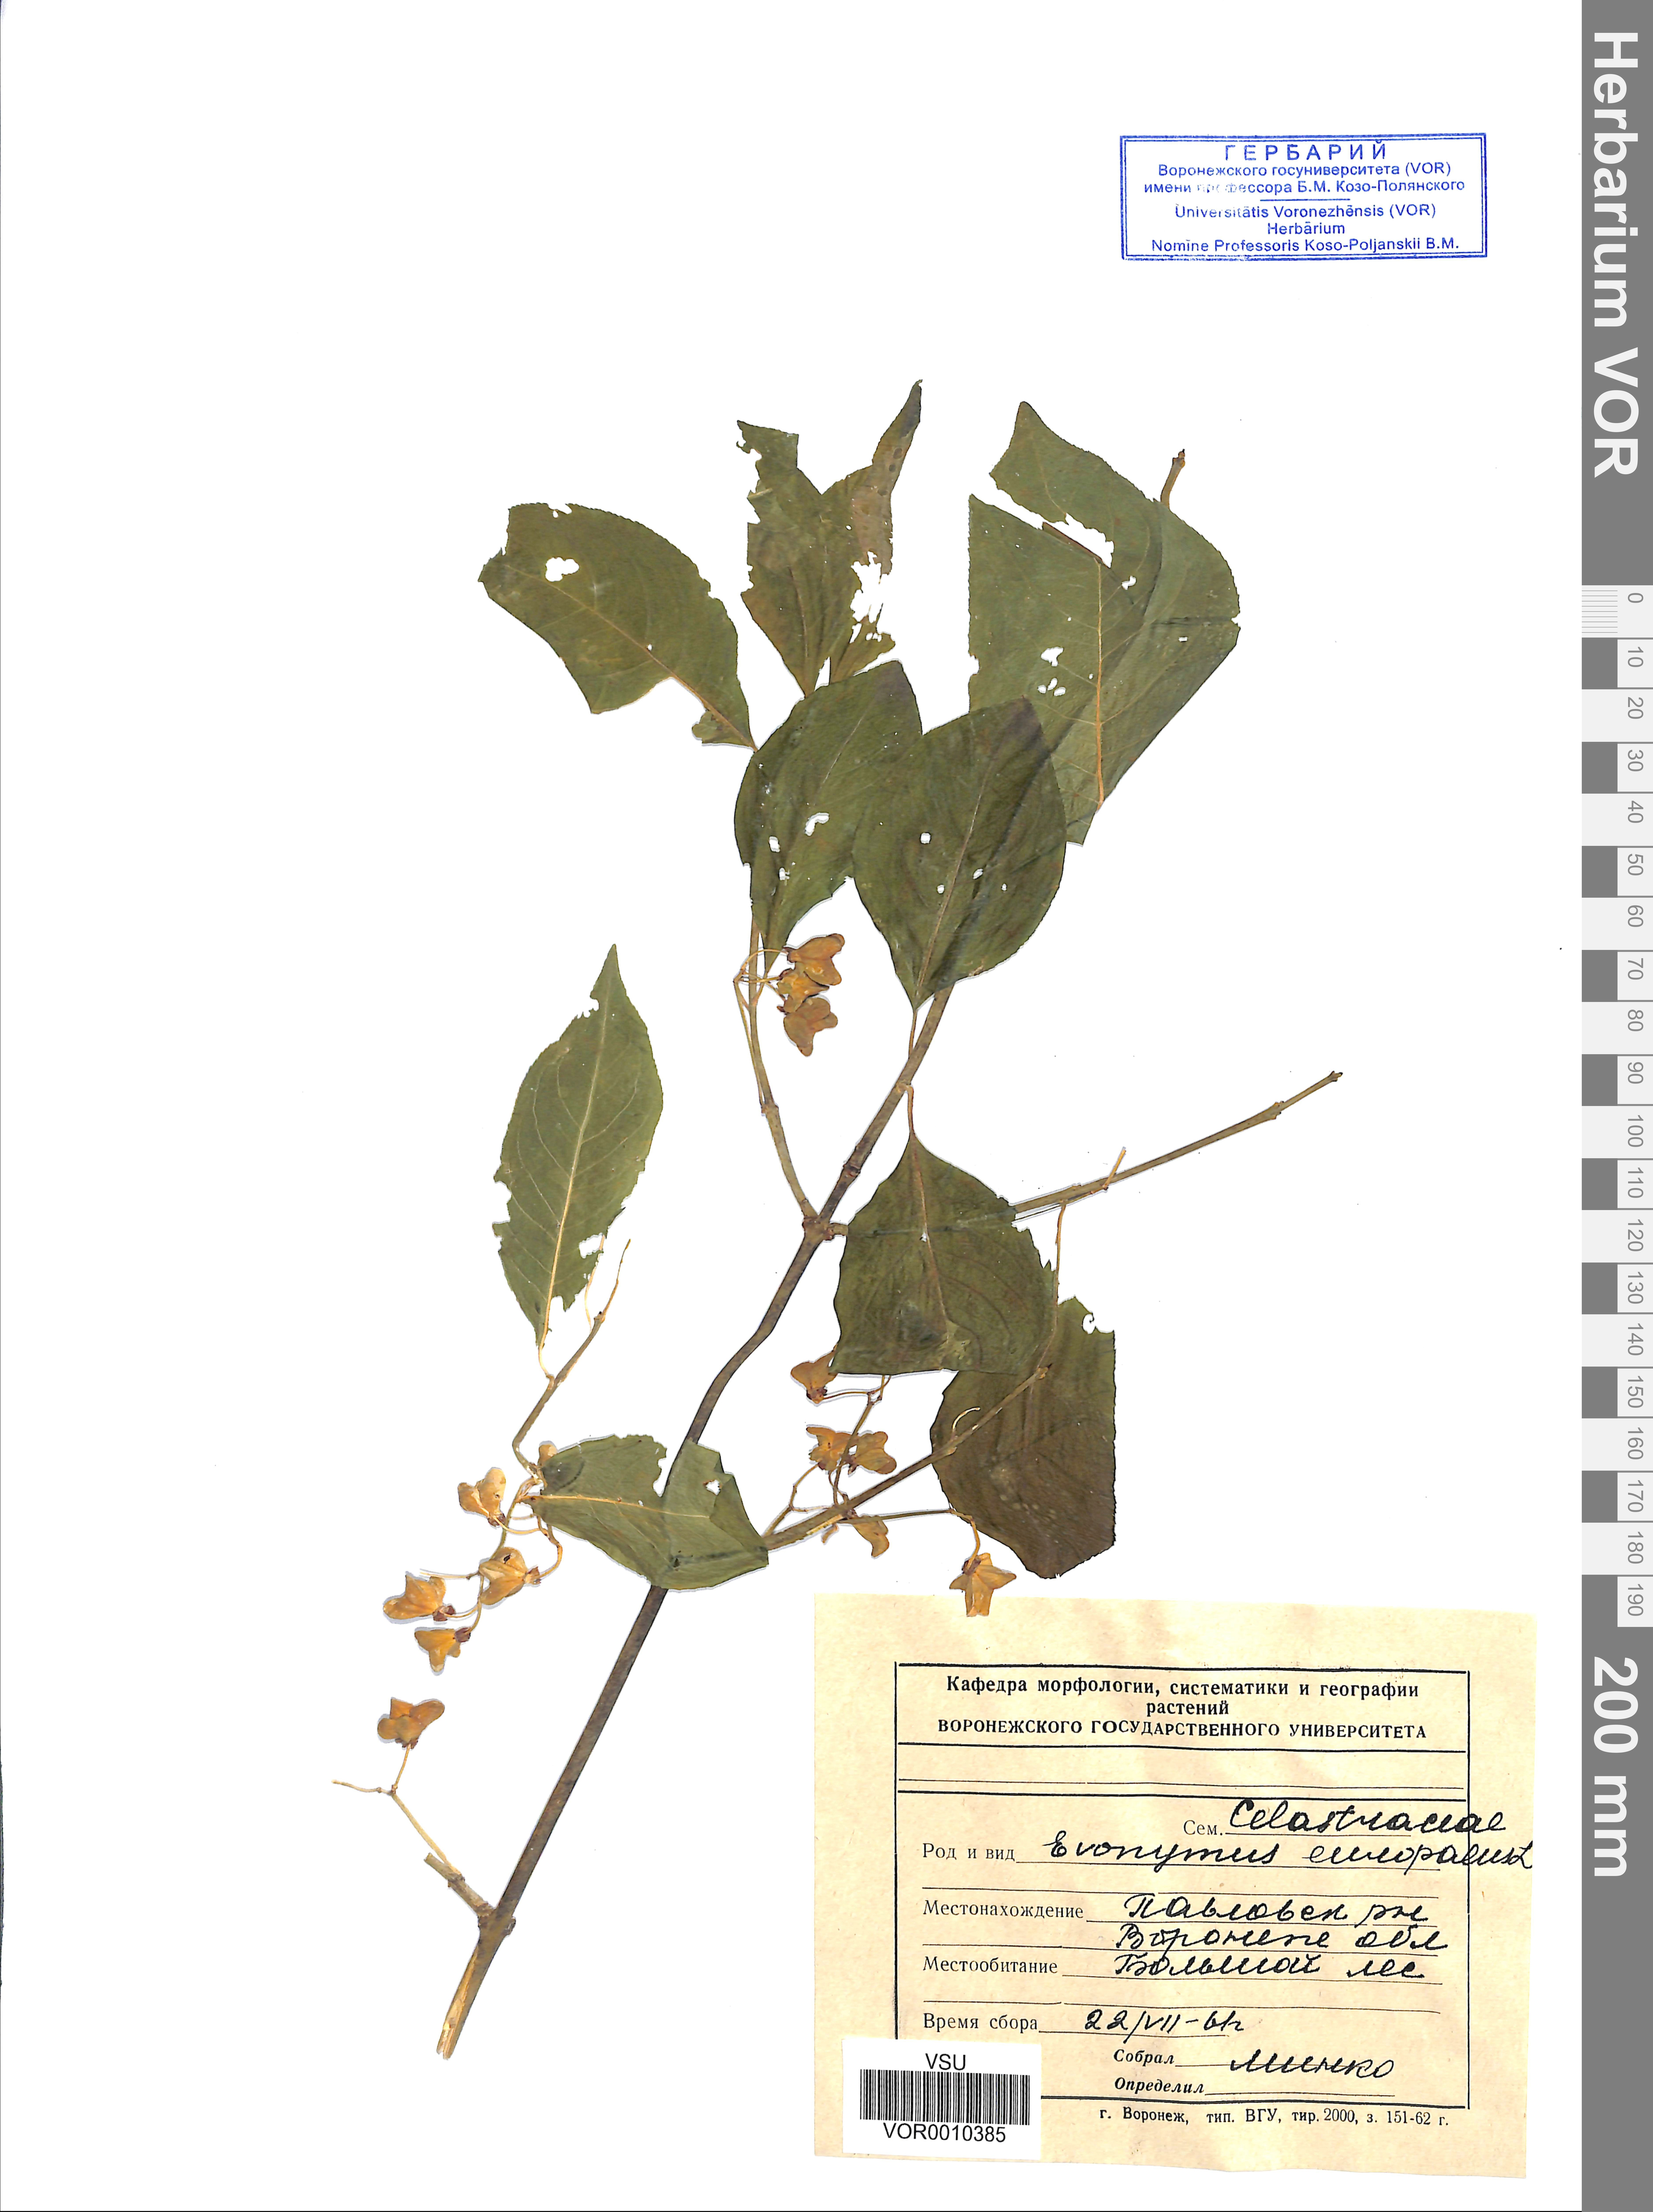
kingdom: Plantae
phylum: Tracheophyta
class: Magnoliopsida
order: Celastrales
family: Celastraceae
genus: Euonymus
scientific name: Euonymus europaeus
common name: Spindle
